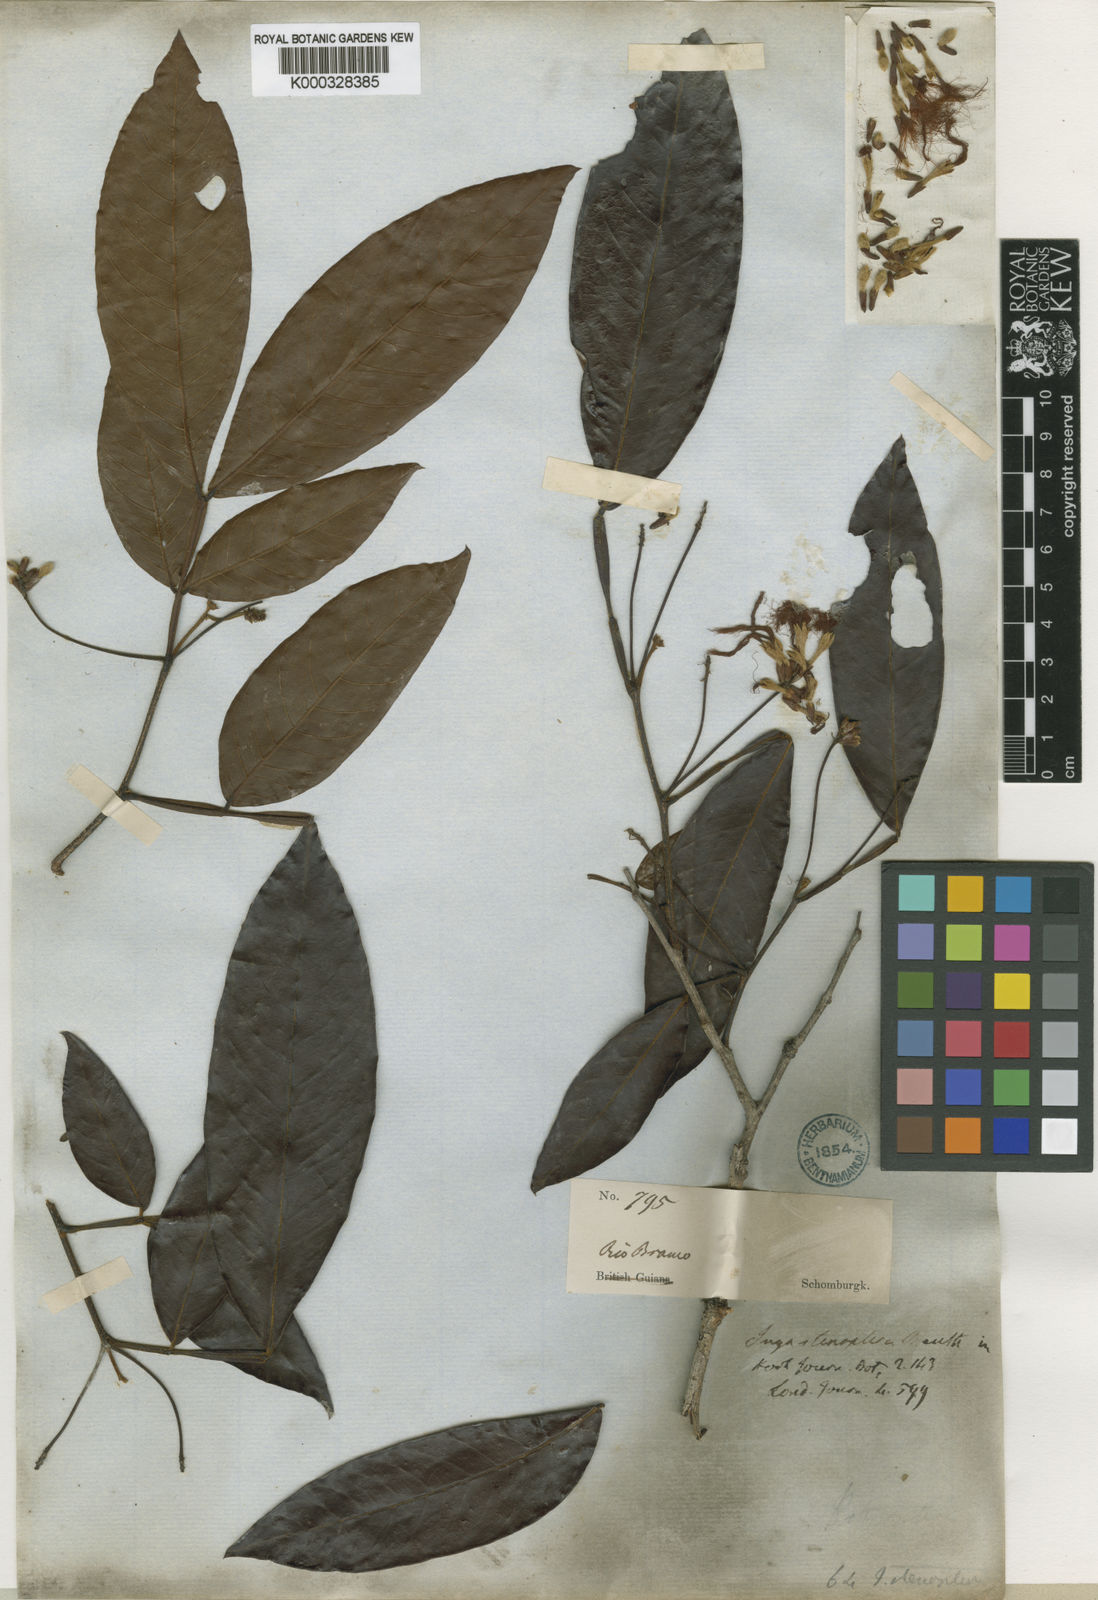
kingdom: Plantae
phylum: Tracheophyta
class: Magnoliopsida
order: Fabales
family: Fabaceae
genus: Inga
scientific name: Inga stenoptera
